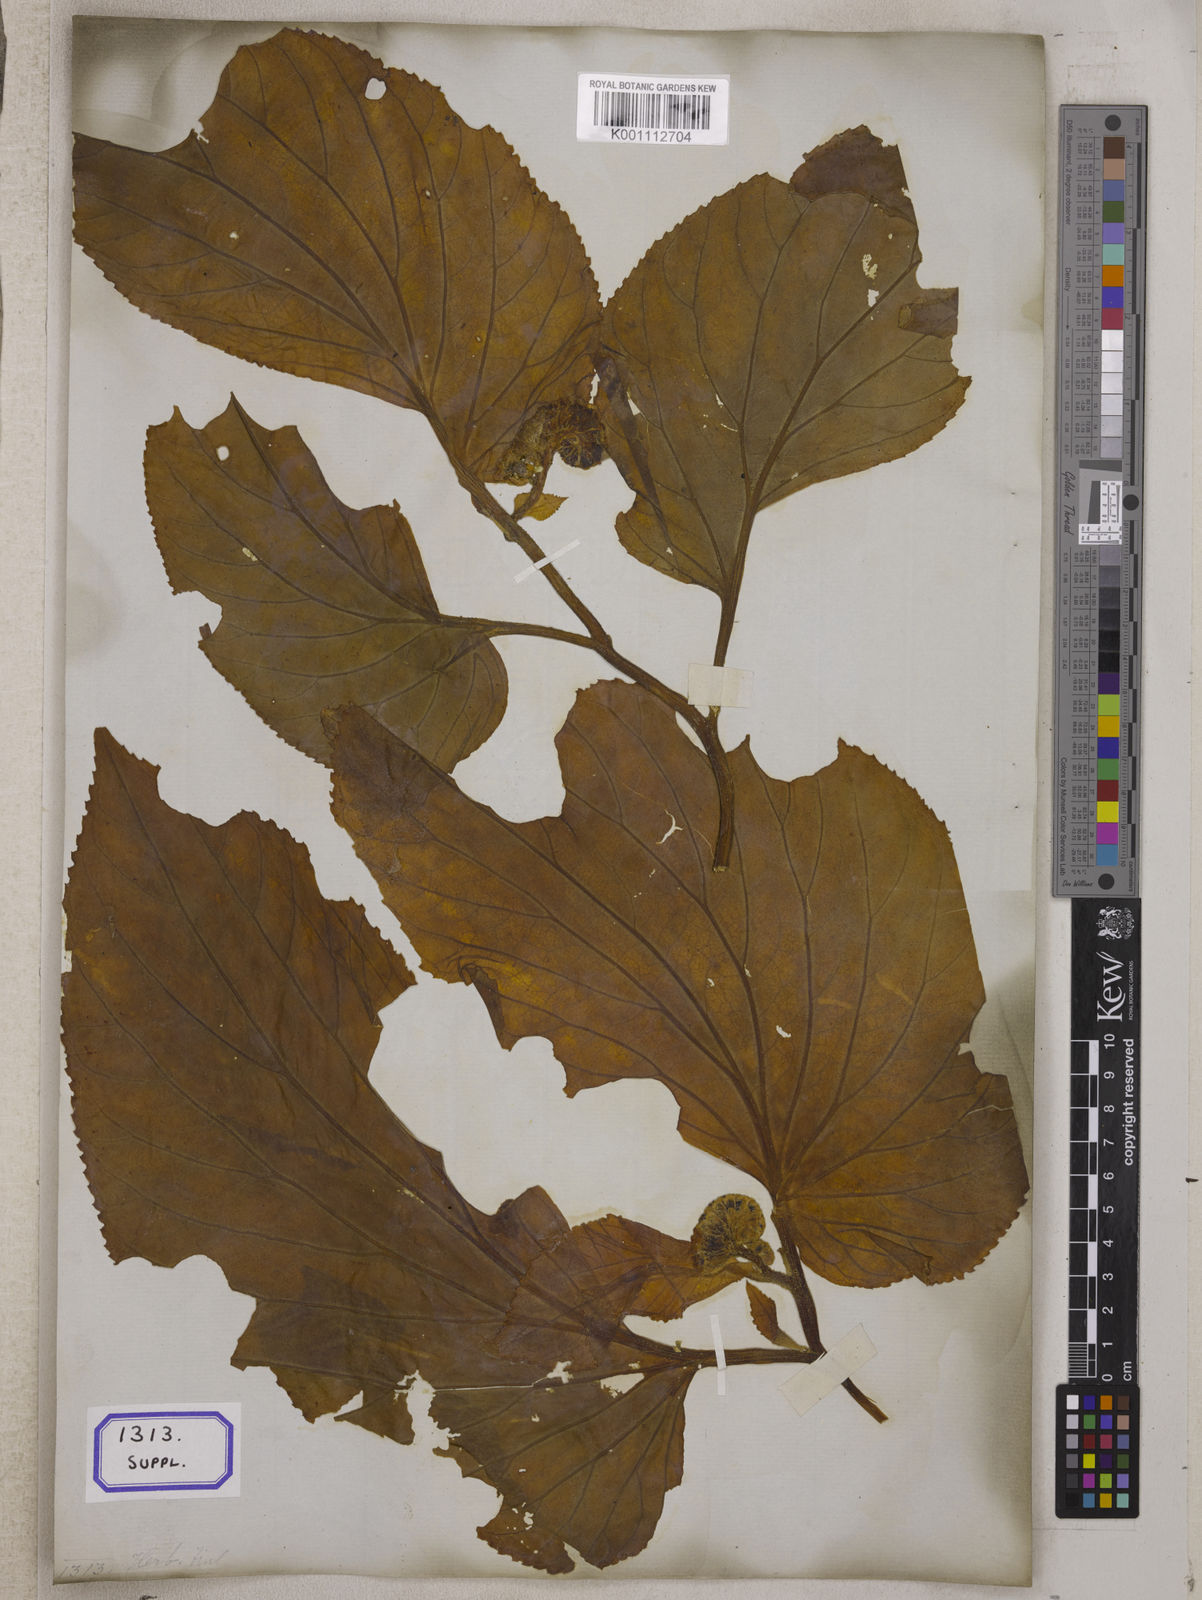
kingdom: Plantae
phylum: Tracheophyta
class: Magnoliopsida
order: Asterales
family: Pentaphragmataceae
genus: Pentaphragma
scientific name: Pentaphragma begoniifolium
